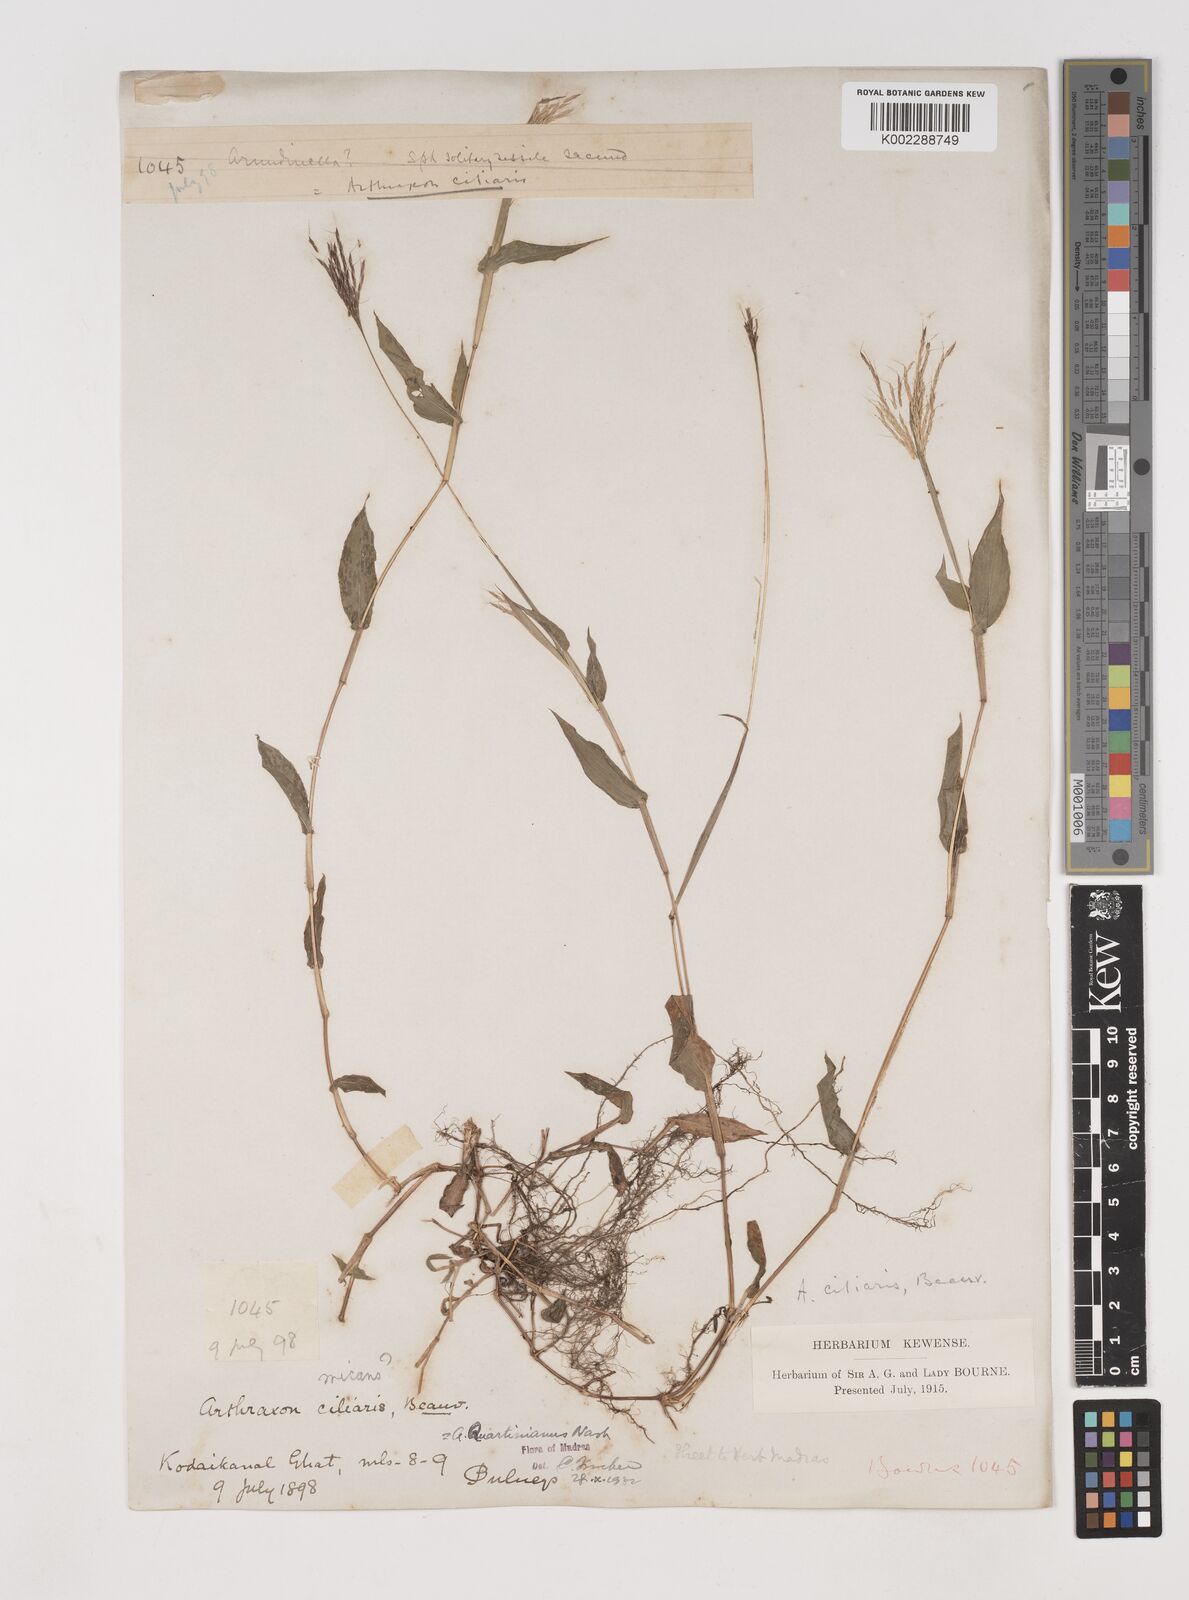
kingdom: Plantae
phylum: Tracheophyta
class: Liliopsida
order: Poales
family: Poaceae
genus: Arthraxon
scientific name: Arthraxon hispidus
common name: Small carpgrass
